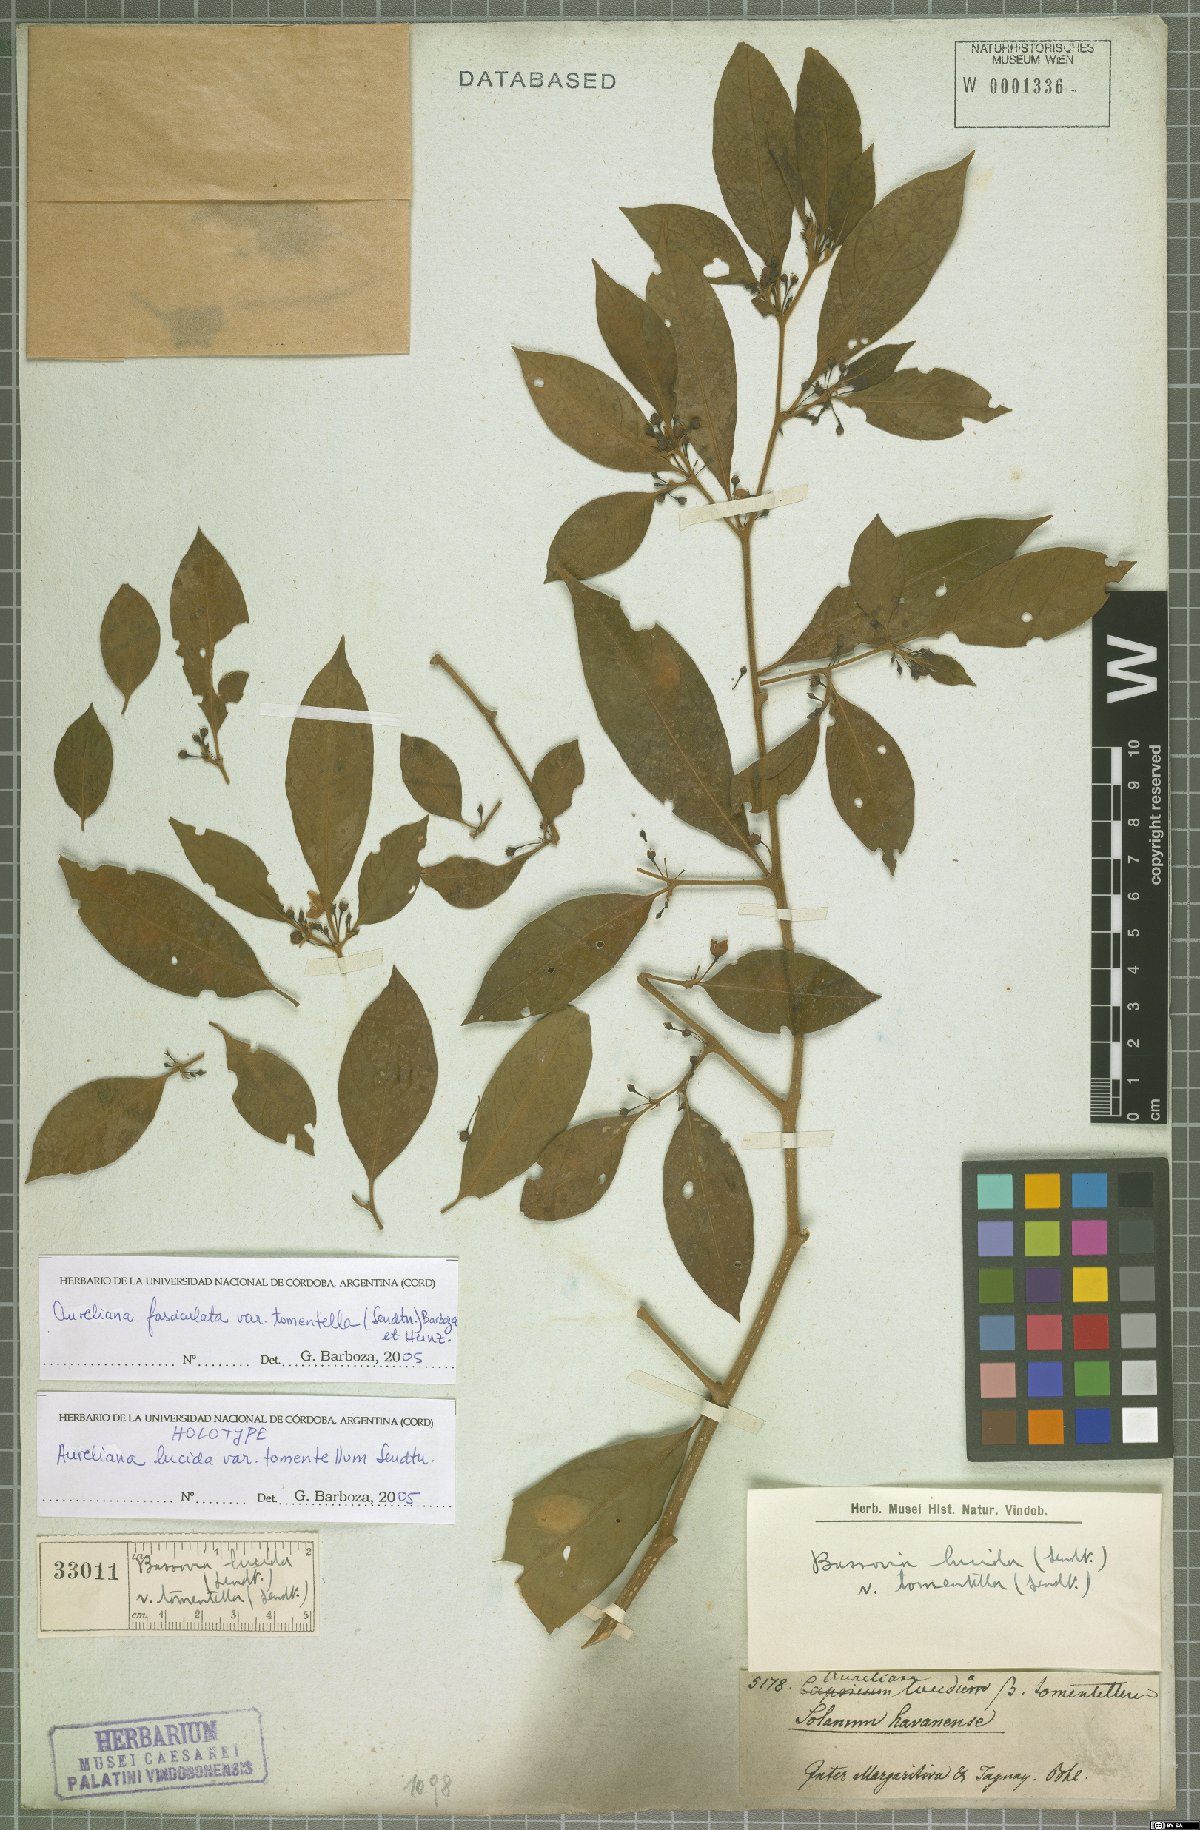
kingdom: Plantae
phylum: Tracheophyta
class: Magnoliopsida
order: Solanales
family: Solanaceae
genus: Athenaea
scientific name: Athenaea fasciculata
